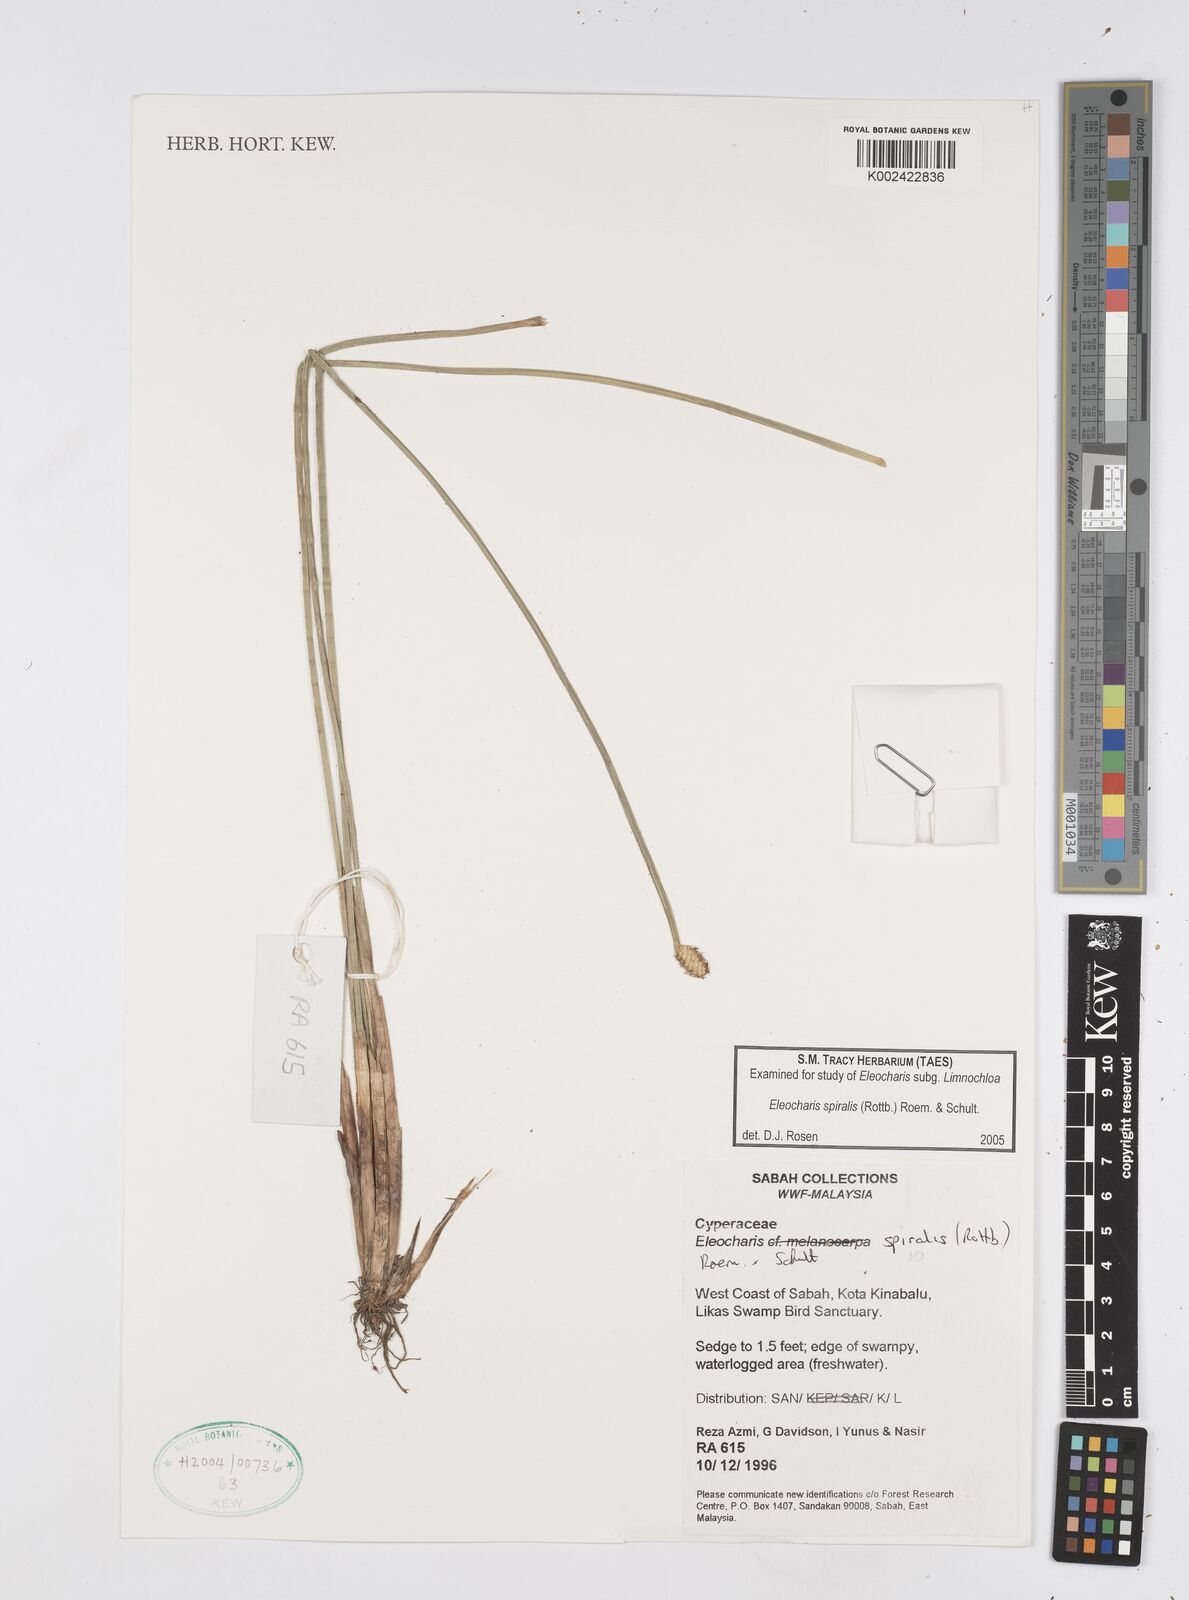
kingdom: Plantae
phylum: Tracheophyta
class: Liliopsida
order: Poales
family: Cyperaceae
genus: Eleocharis
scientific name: Eleocharis spiralis
